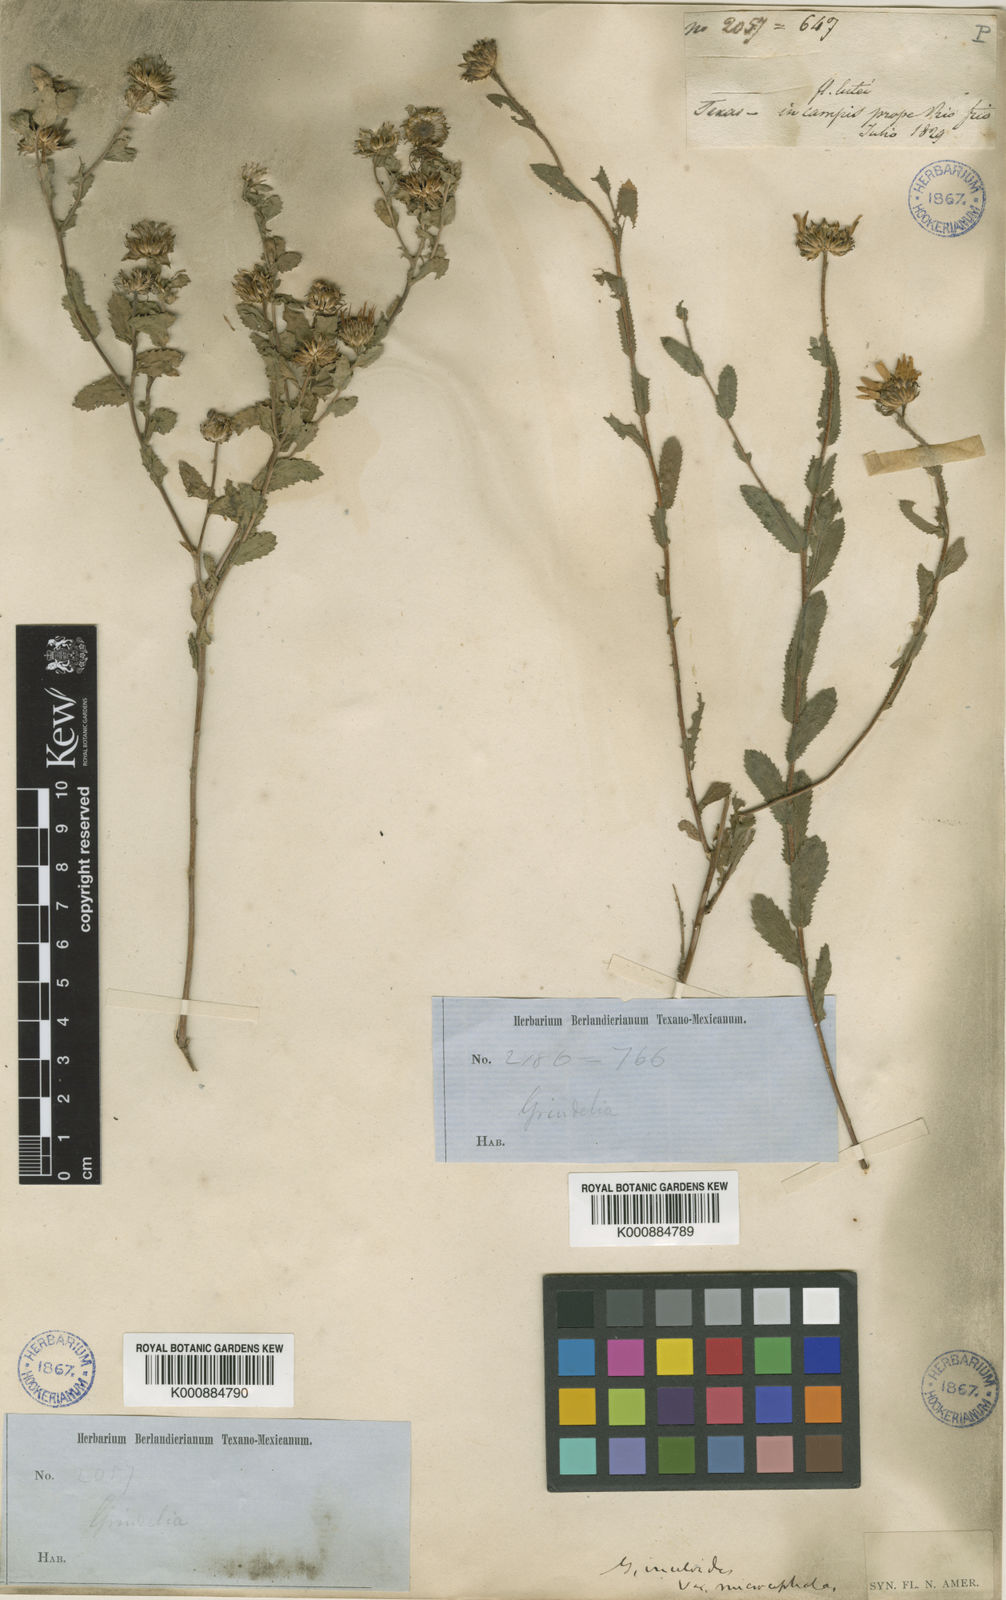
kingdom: Plantae
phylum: Tracheophyta
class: Magnoliopsida
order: Asterales
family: Asteraceae
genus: Grindelia
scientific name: Grindelia microcephala
